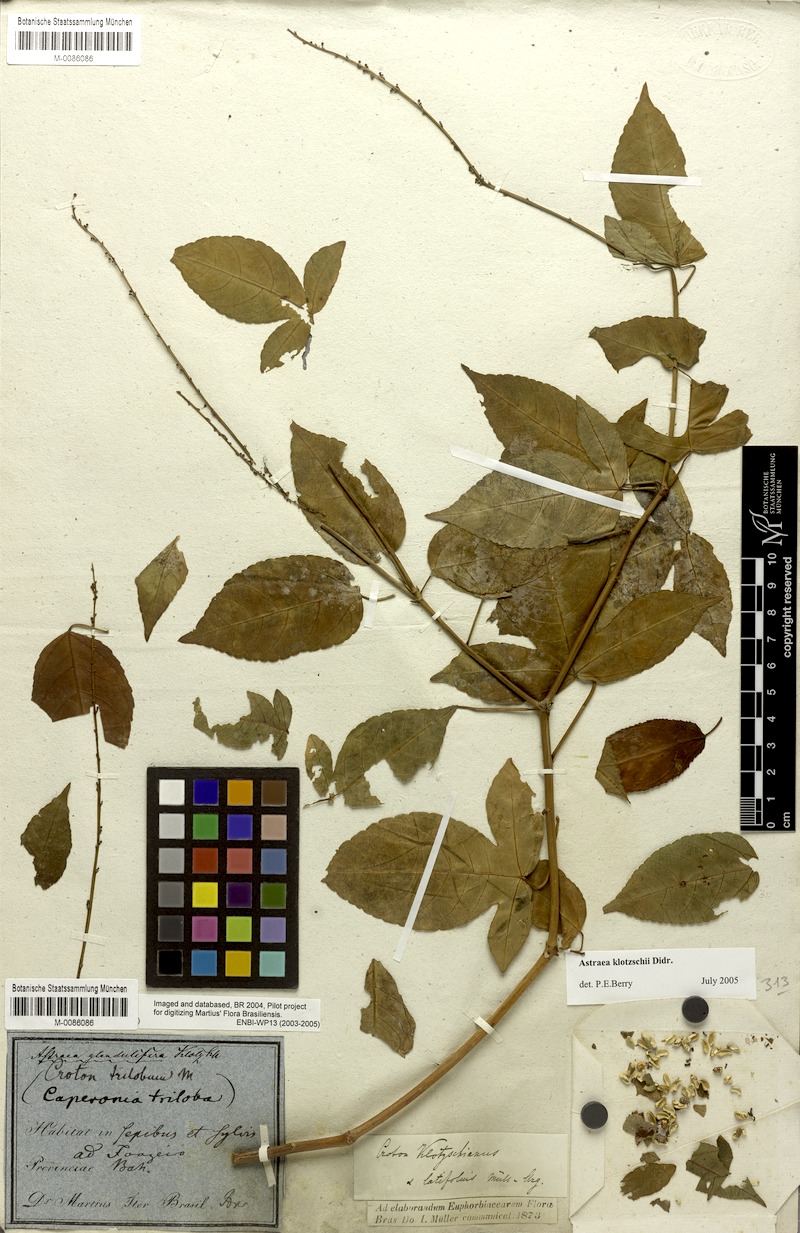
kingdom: Plantae
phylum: Tracheophyta
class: Magnoliopsida
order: Malpighiales
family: Euphorbiaceae
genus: Astraea
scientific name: Astraea macroura
